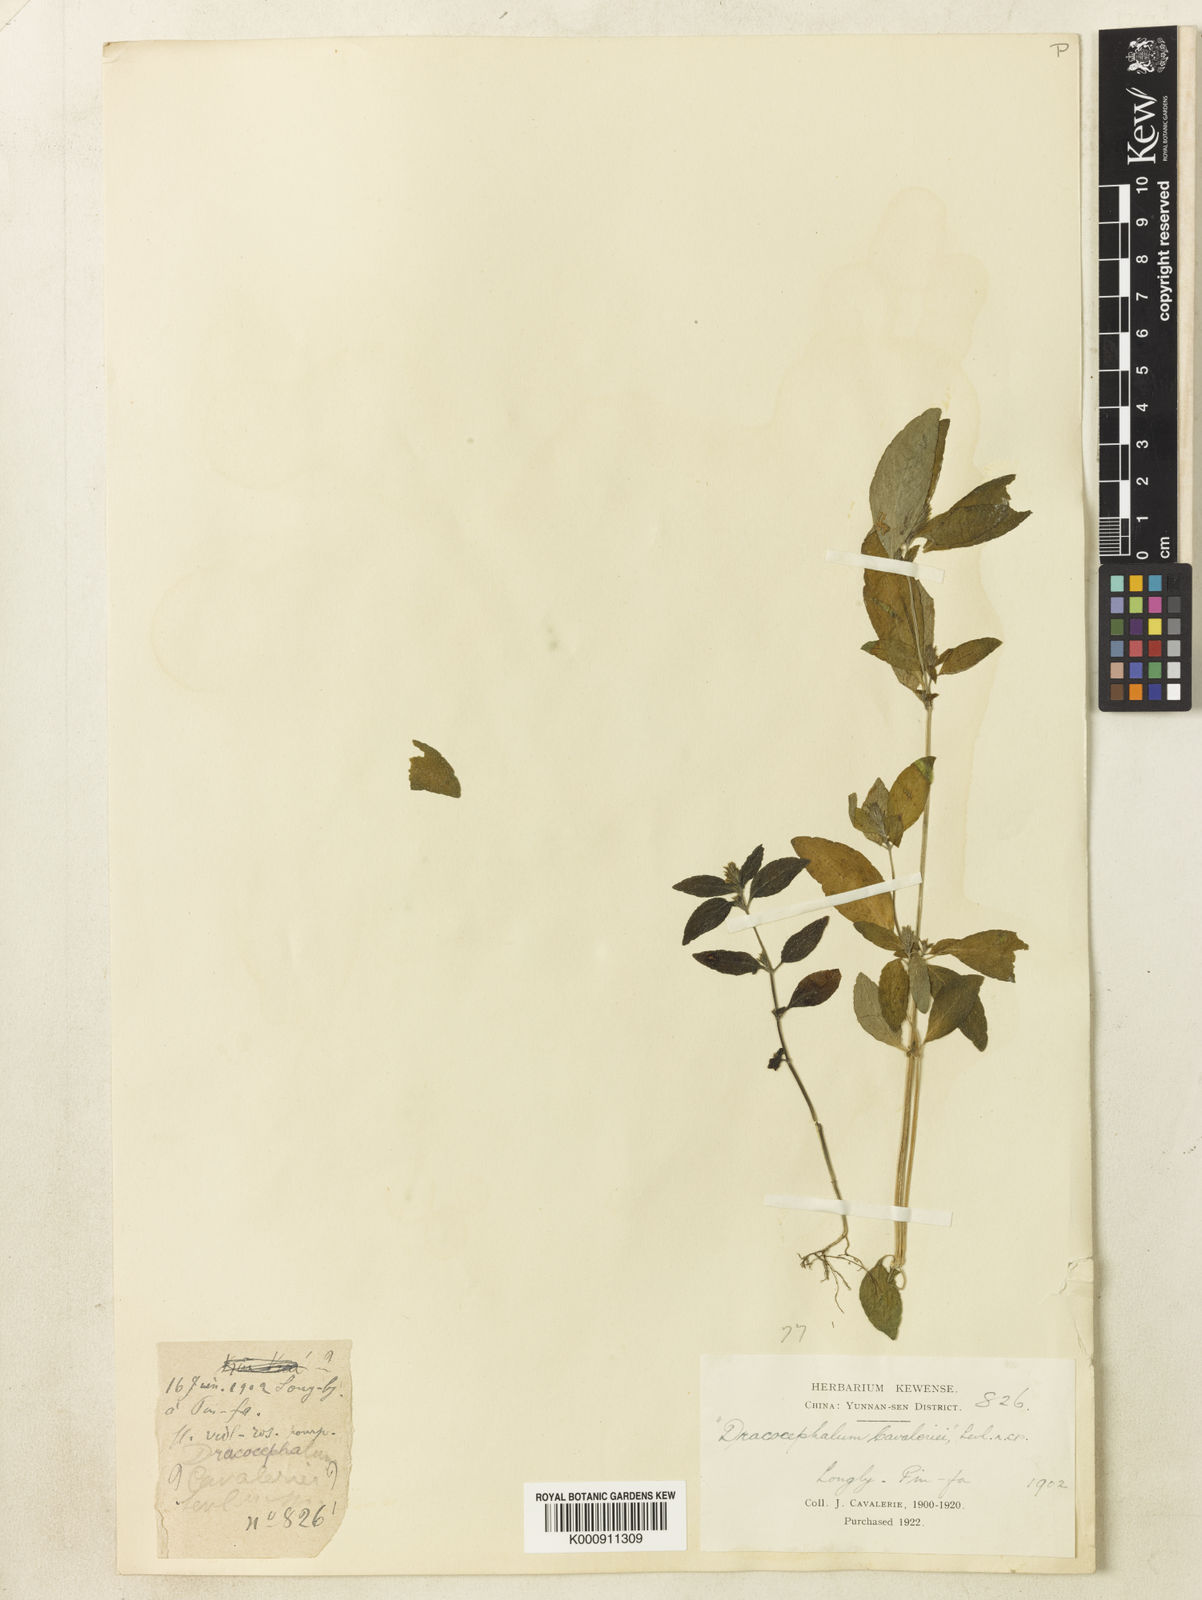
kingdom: Plantae
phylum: Tracheophyta
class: Magnoliopsida
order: Lamiales
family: Lamiaceae
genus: Dracocephalum
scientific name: Dracocephalum
